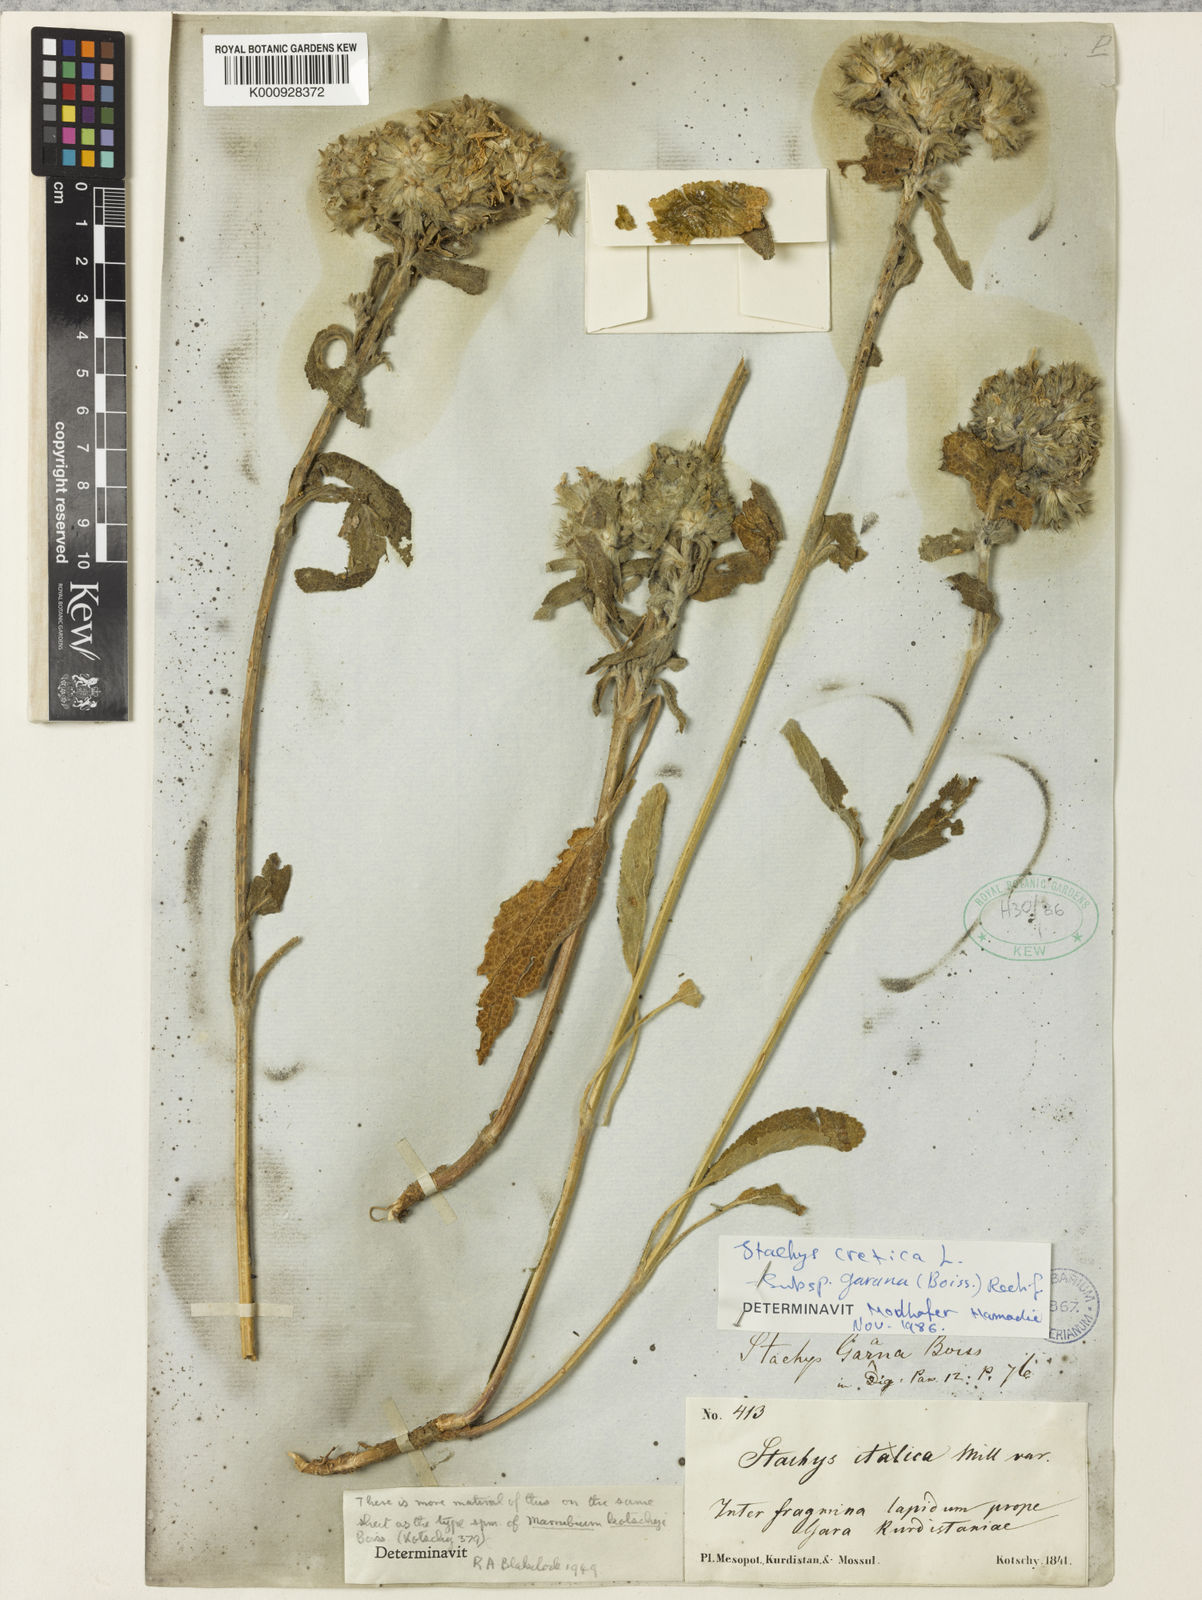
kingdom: Plantae
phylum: Tracheophyta
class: Magnoliopsida
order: Lamiales
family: Lamiaceae
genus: Stachys
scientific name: Stachys cretica
